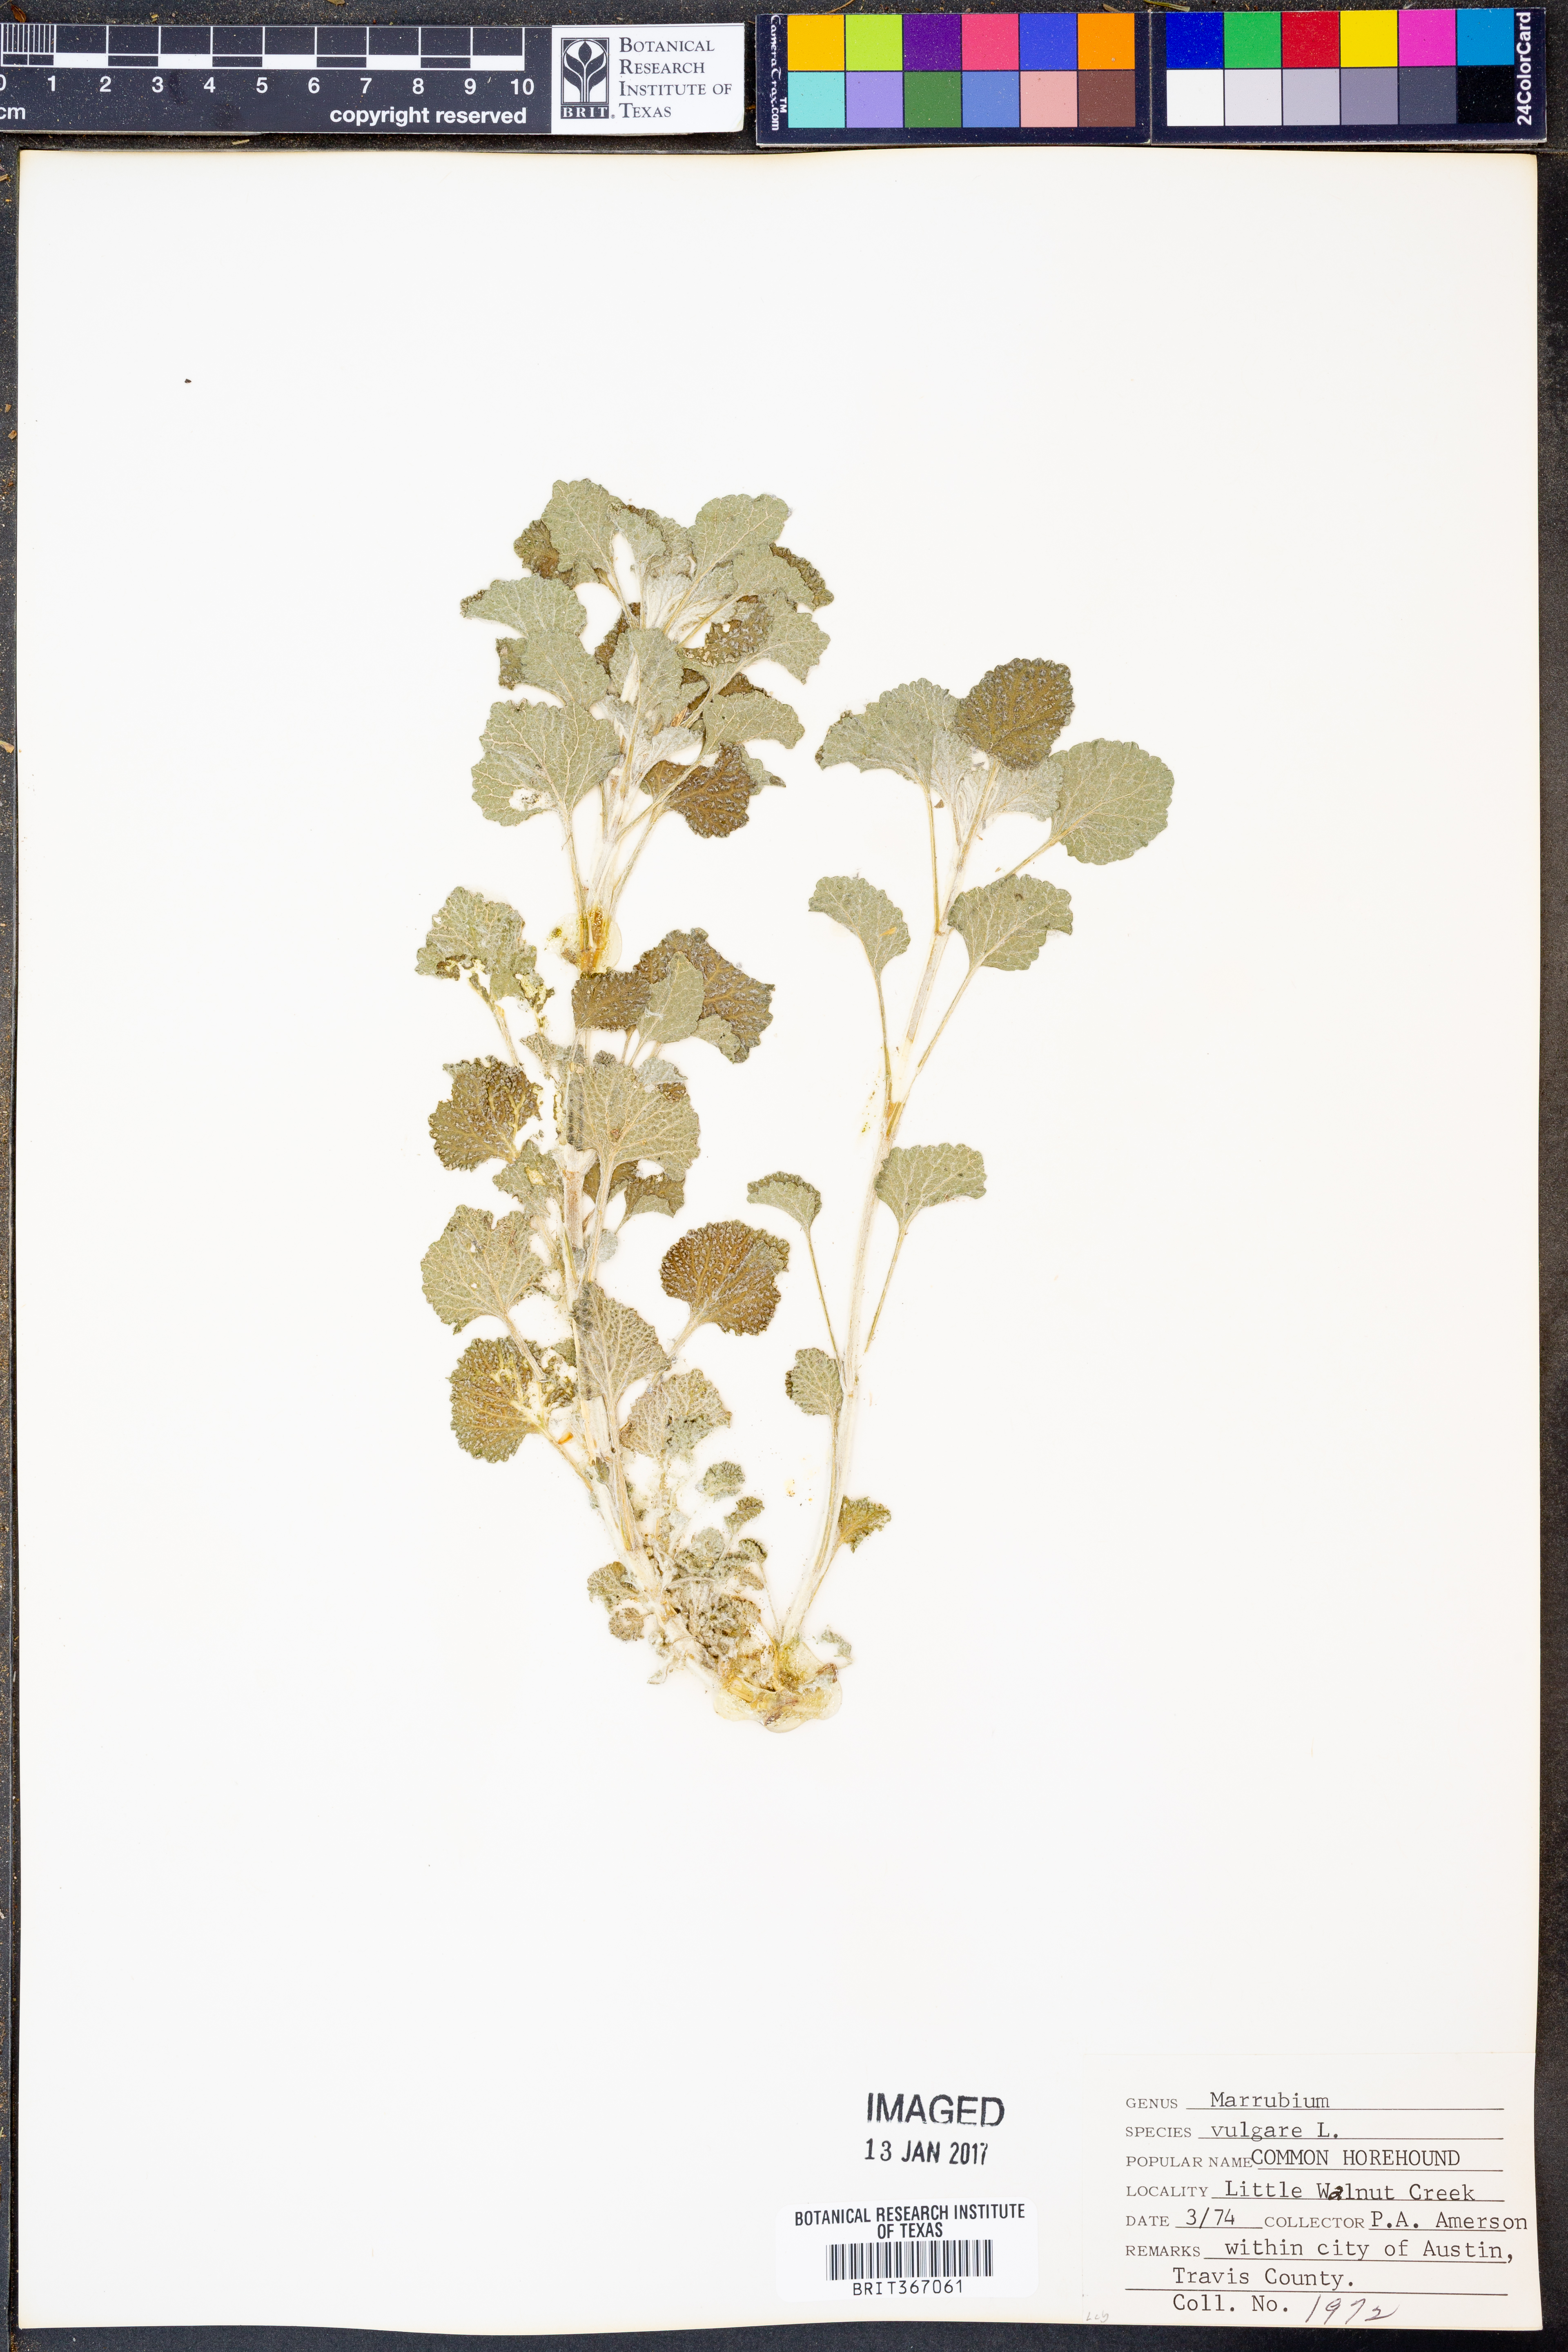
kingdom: Plantae
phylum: Tracheophyta
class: Magnoliopsida
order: Lamiales
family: Lamiaceae
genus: Marrubium
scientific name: Marrubium vulgare
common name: Horehound
